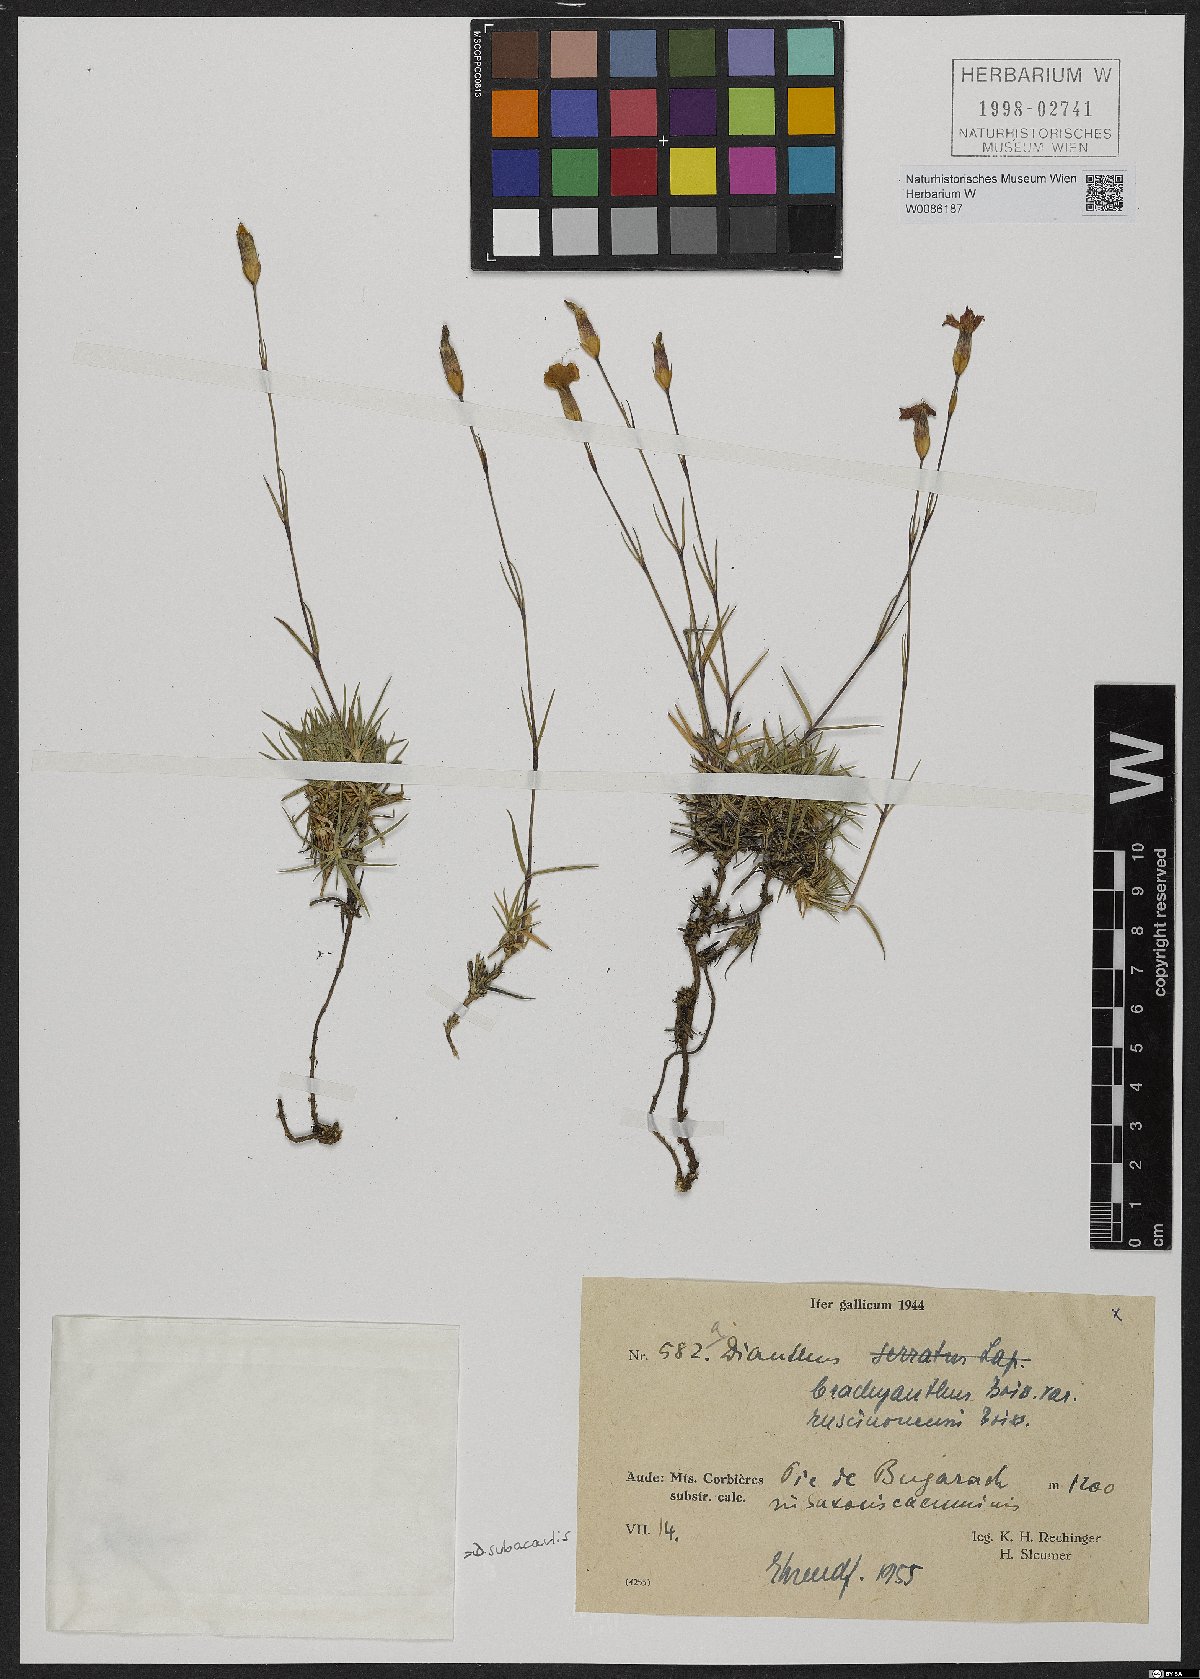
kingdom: Plantae
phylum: Tracheophyta
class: Magnoliopsida
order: Caryophyllales
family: Caryophyllaceae
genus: Dianthus
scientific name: Dianthus pungens
